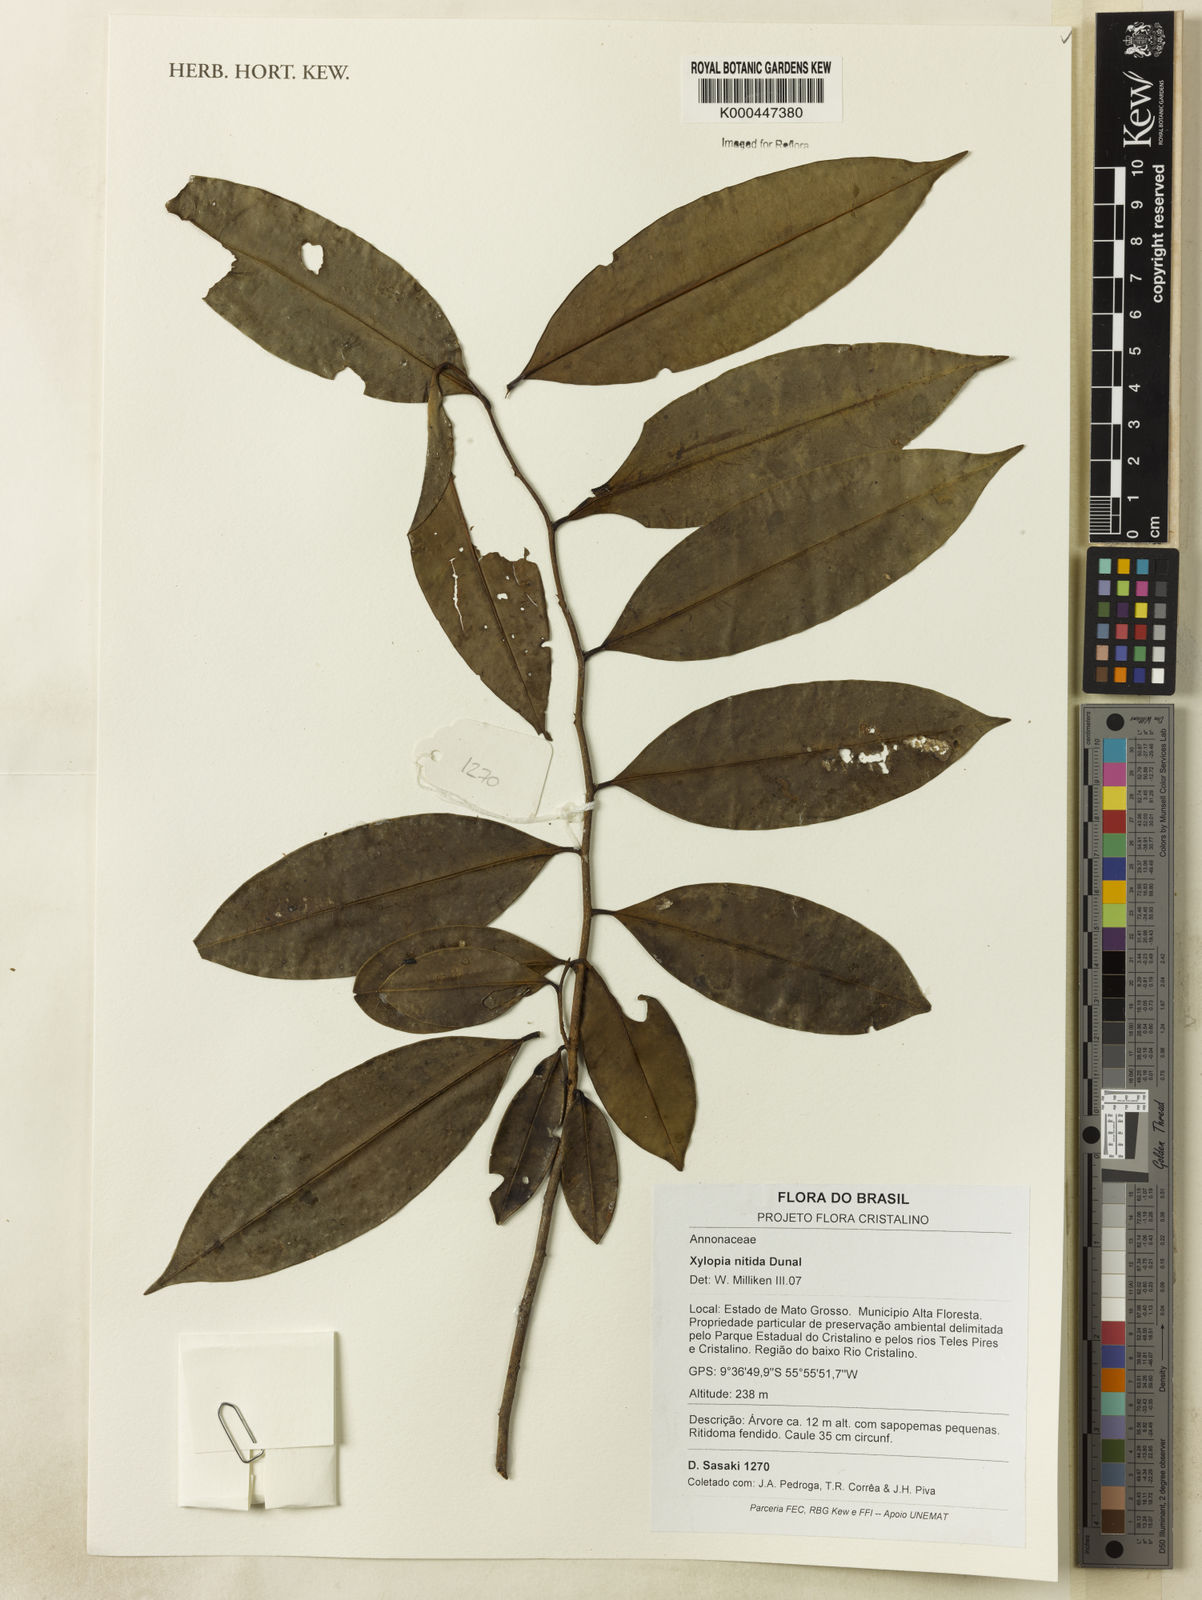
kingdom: Plantae
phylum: Tracheophyta
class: Magnoliopsida
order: Magnoliales
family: Annonaceae
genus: Xylopia
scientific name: Xylopia nitida
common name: White kuyama
